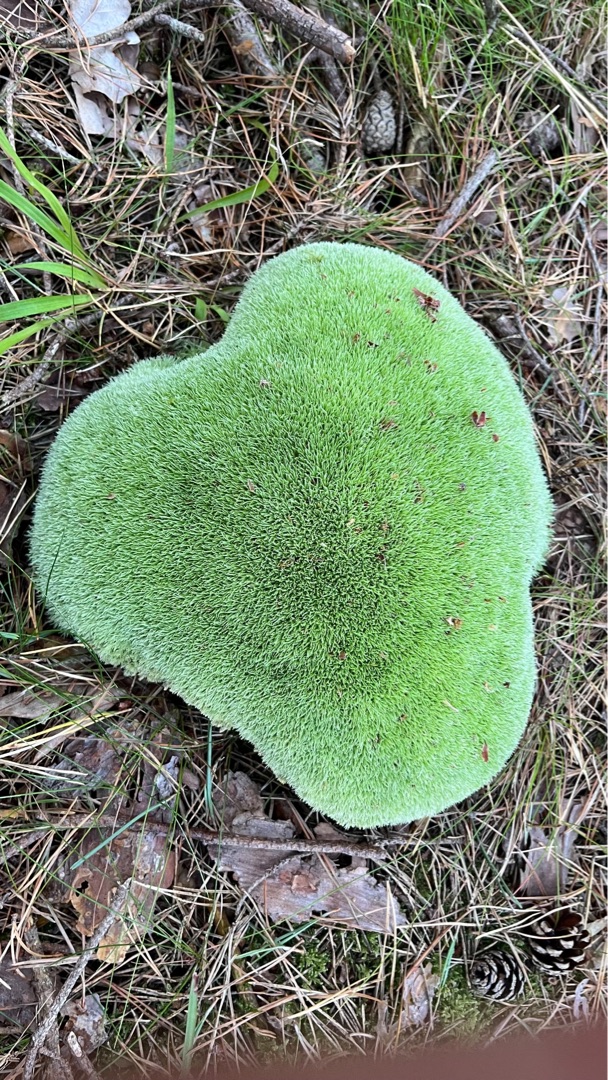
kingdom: Plantae
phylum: Bryophyta
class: Bryopsida
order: Dicranales
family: Leucobryaceae
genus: Leucobryum
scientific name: Leucobryum glaucum
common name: Almindelig hvidmos
